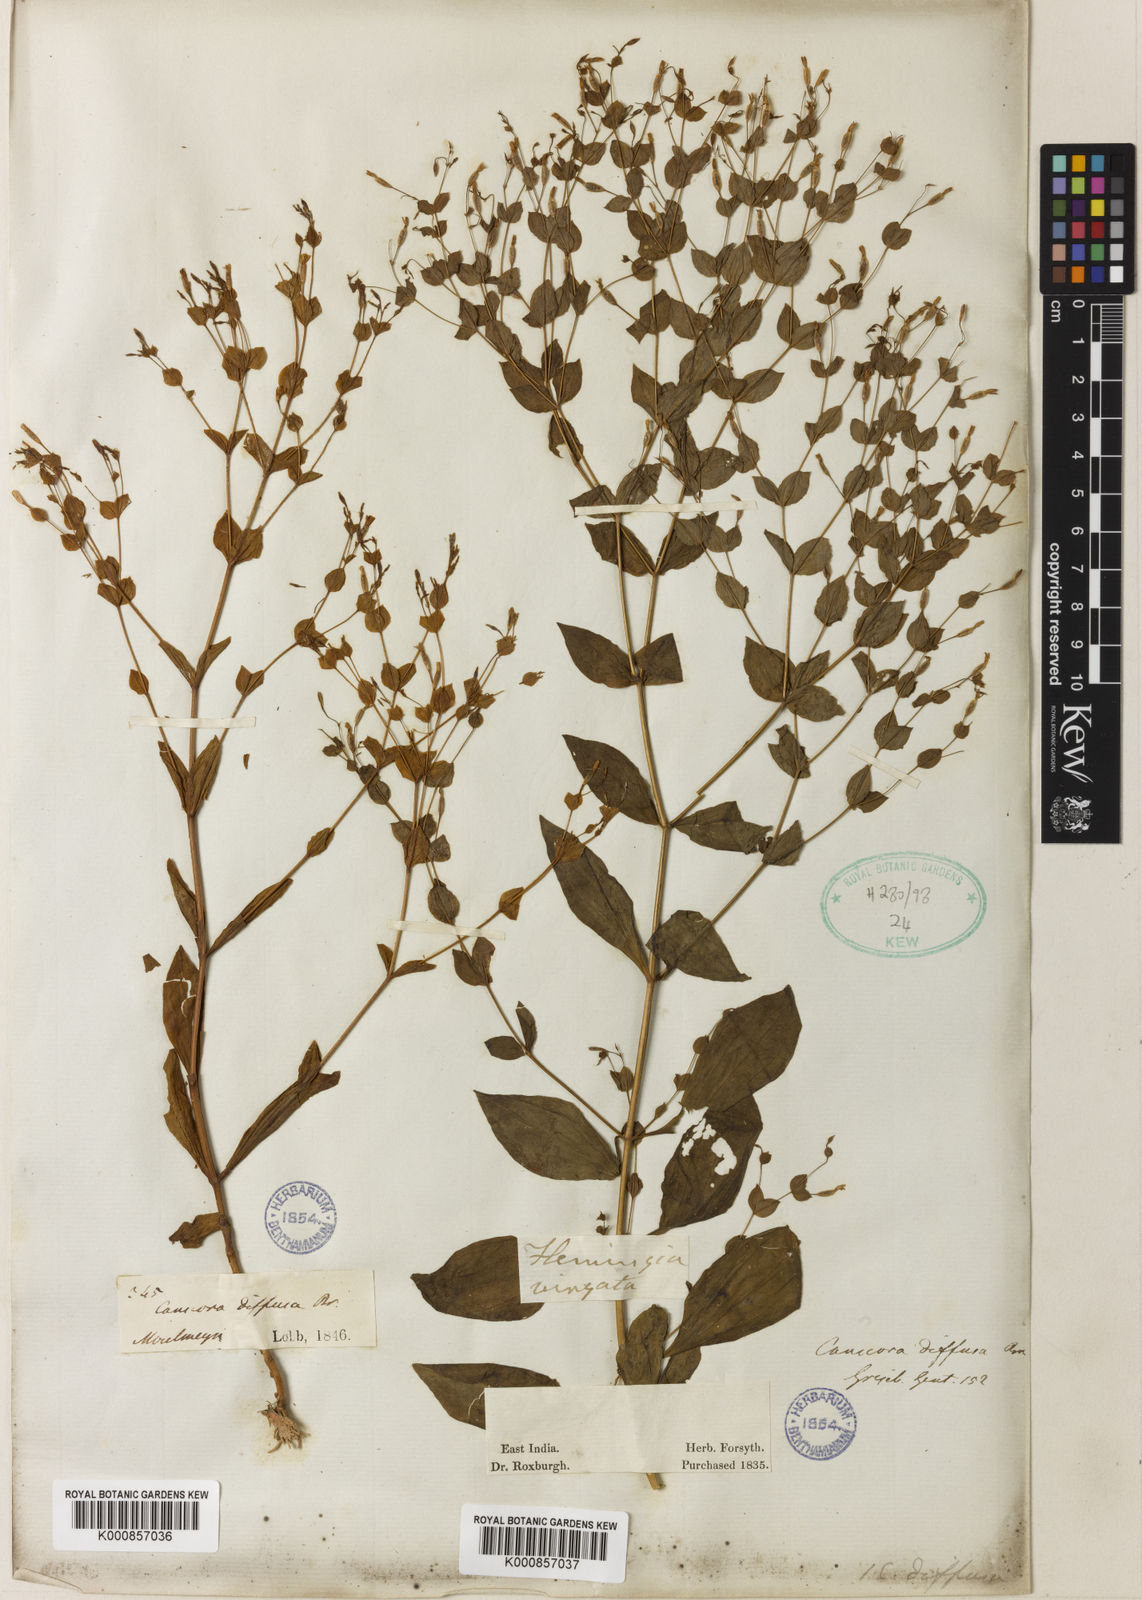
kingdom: Plantae
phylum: Tracheophyta
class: Magnoliopsida
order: Gentianales
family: Gentianaceae
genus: Canscora
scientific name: Canscora diffusa
